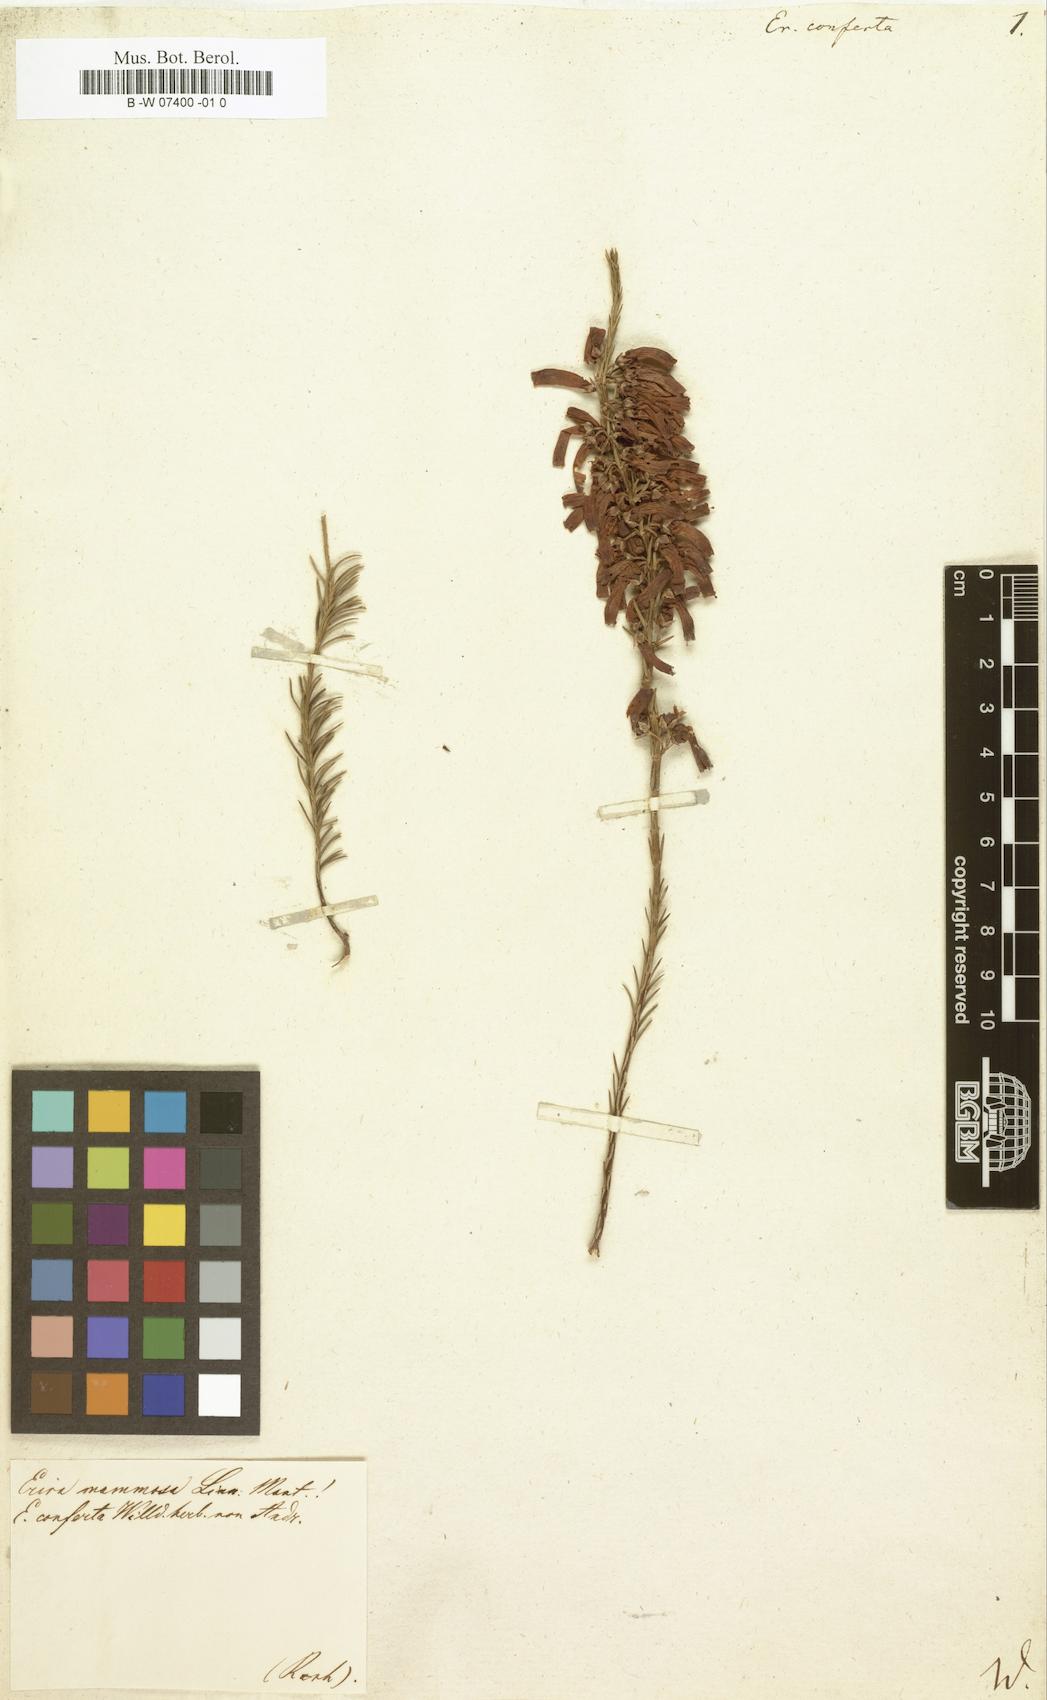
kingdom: Plantae
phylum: Tracheophyta
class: Magnoliopsida
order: Ericales
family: Ericaceae
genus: Erica
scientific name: Erica conferta
